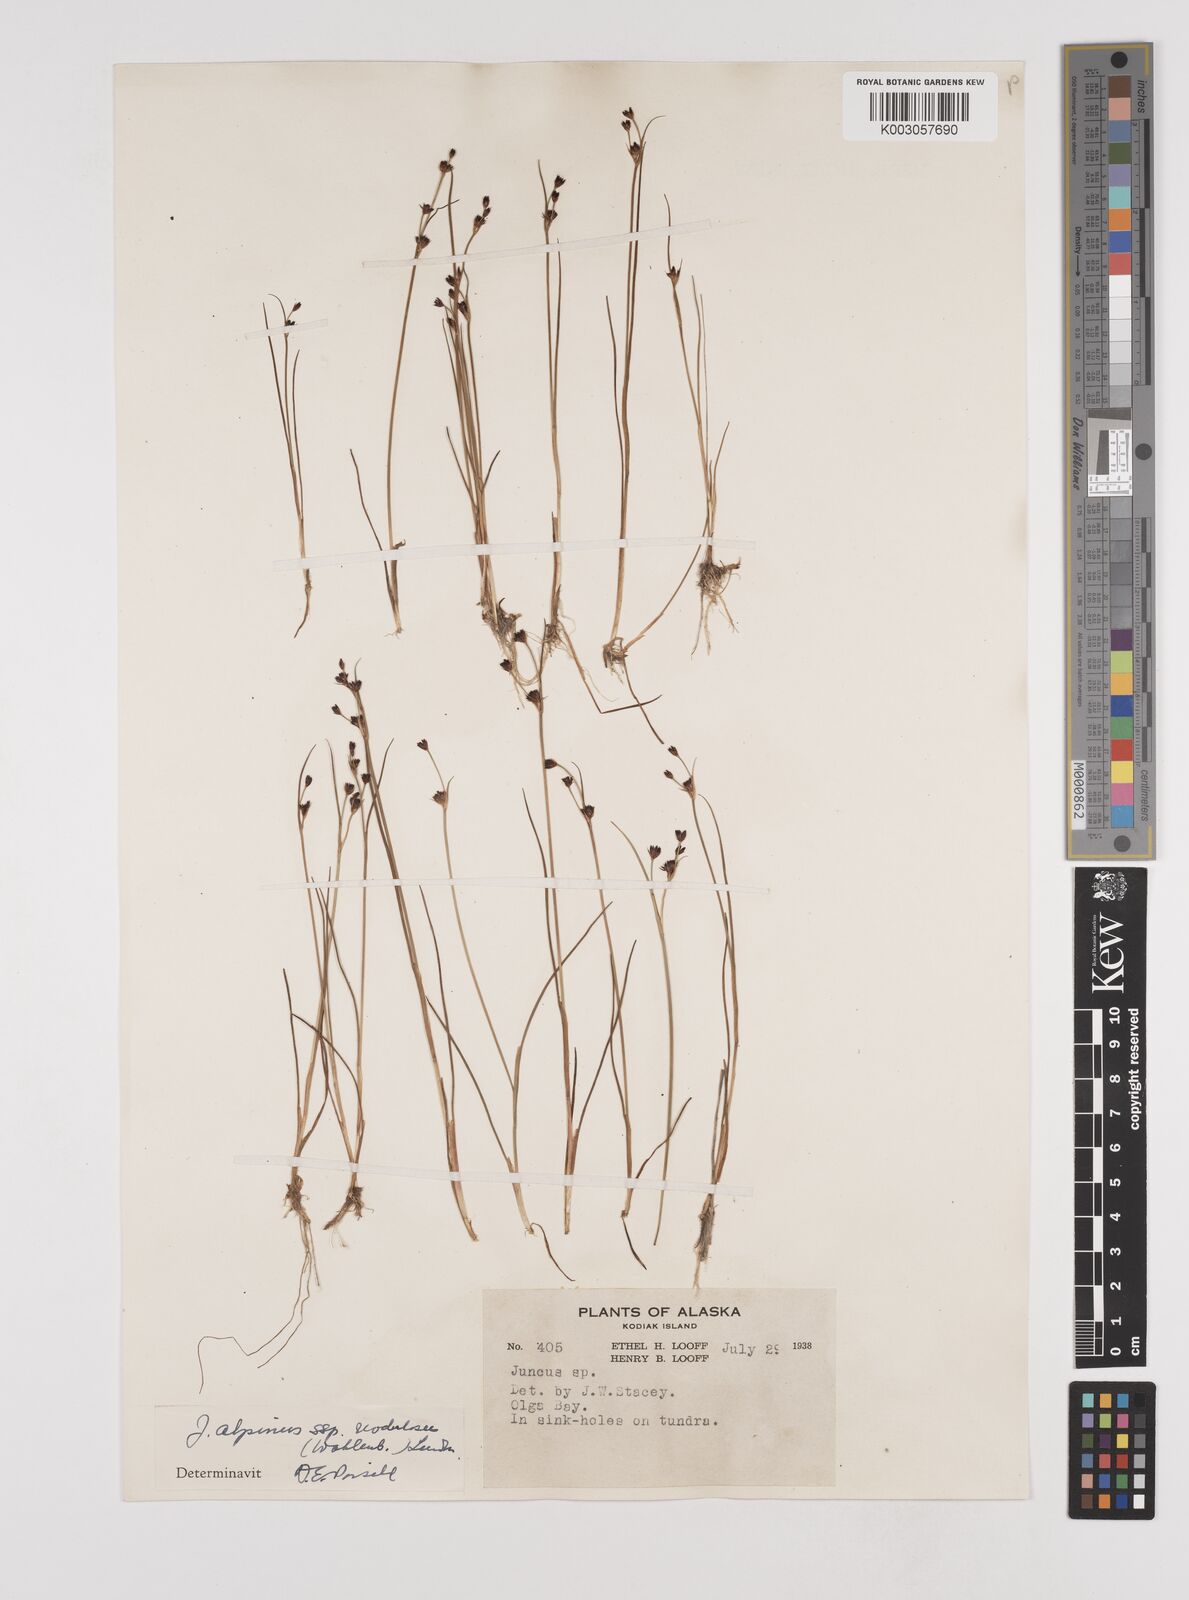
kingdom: Plantae
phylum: Tracheophyta
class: Liliopsida
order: Poales
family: Juncaceae
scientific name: Juncaceae
